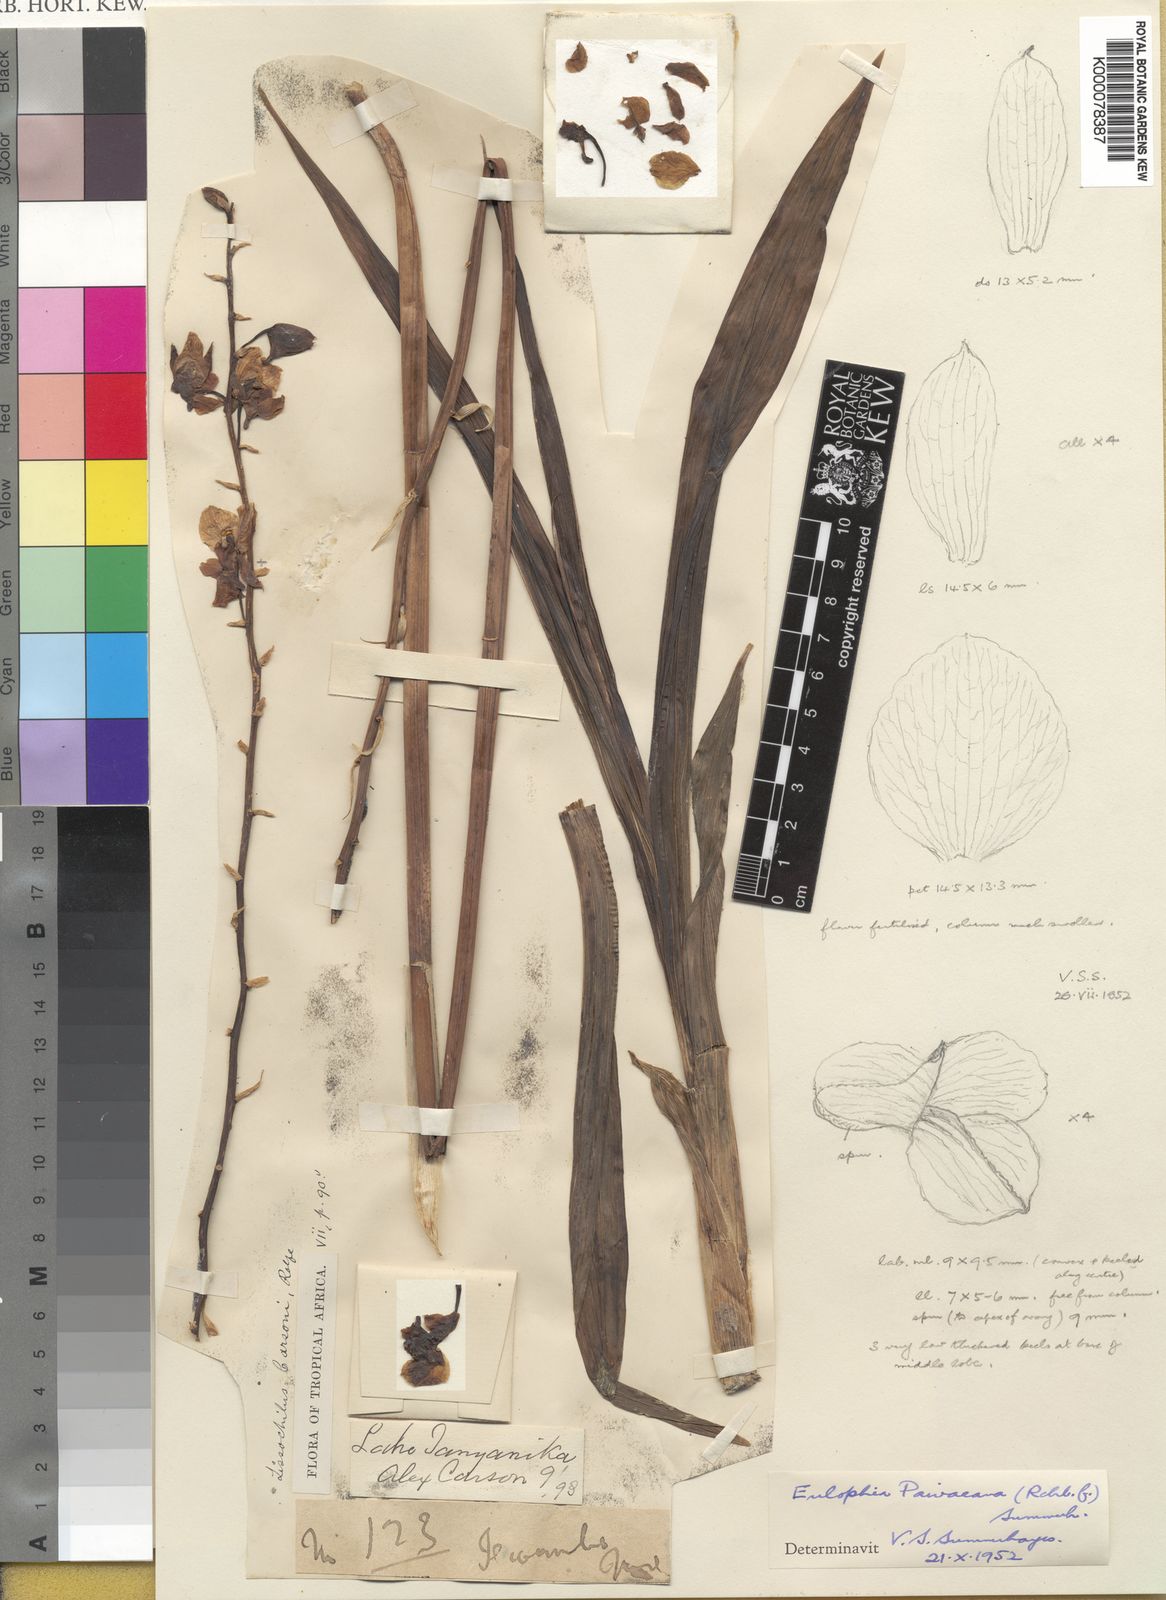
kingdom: Plantae
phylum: Tracheophyta
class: Liliopsida
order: Asparagales
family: Orchidaceae
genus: Eulophia
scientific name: Eulophia streptopetala
